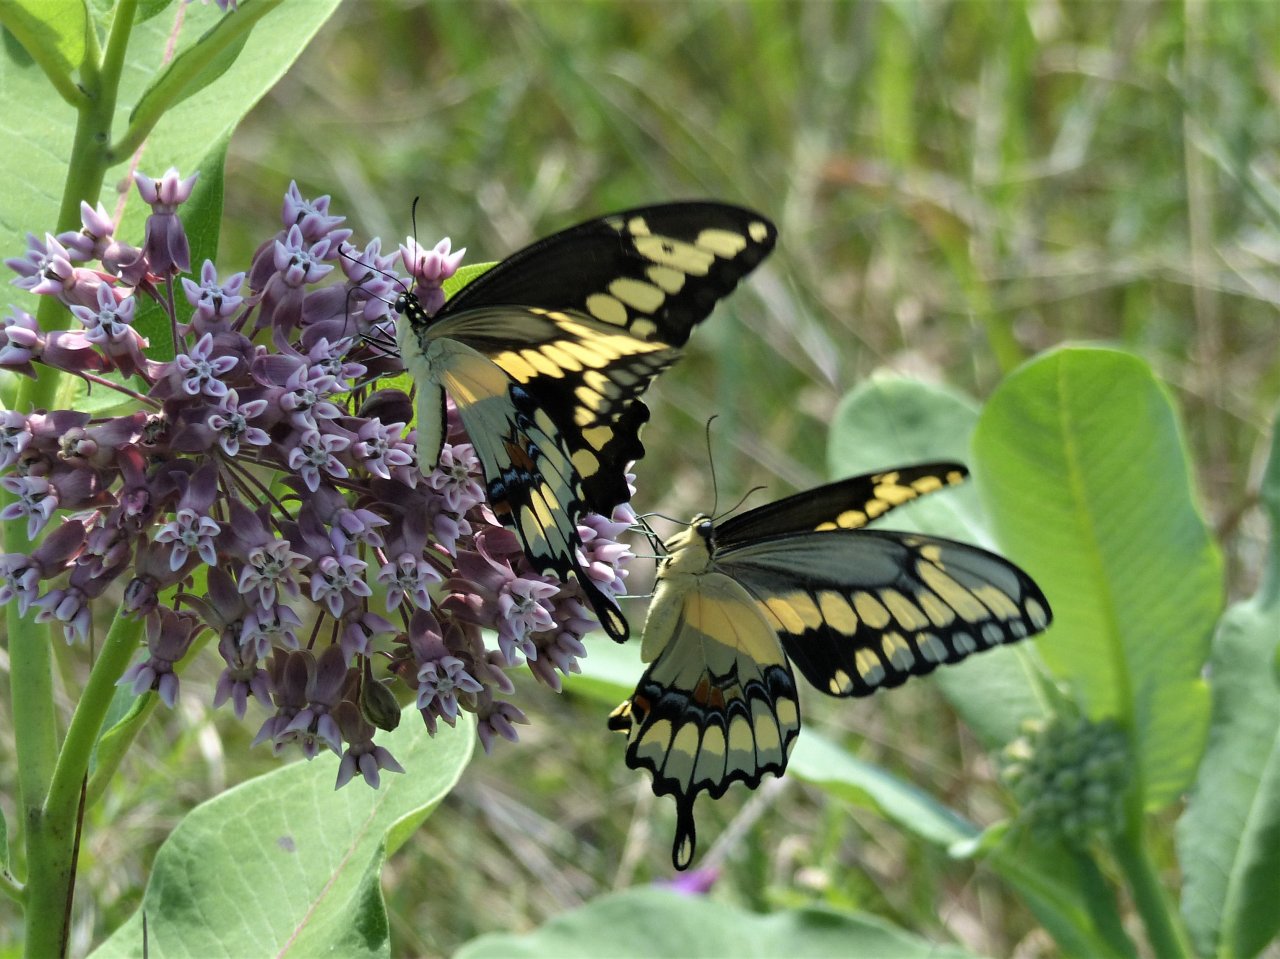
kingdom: Animalia
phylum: Arthropoda
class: Insecta
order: Lepidoptera
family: Papilionidae
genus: Papilio
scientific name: Papilio cresphontes
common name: Eastern Giant Swallowtail
